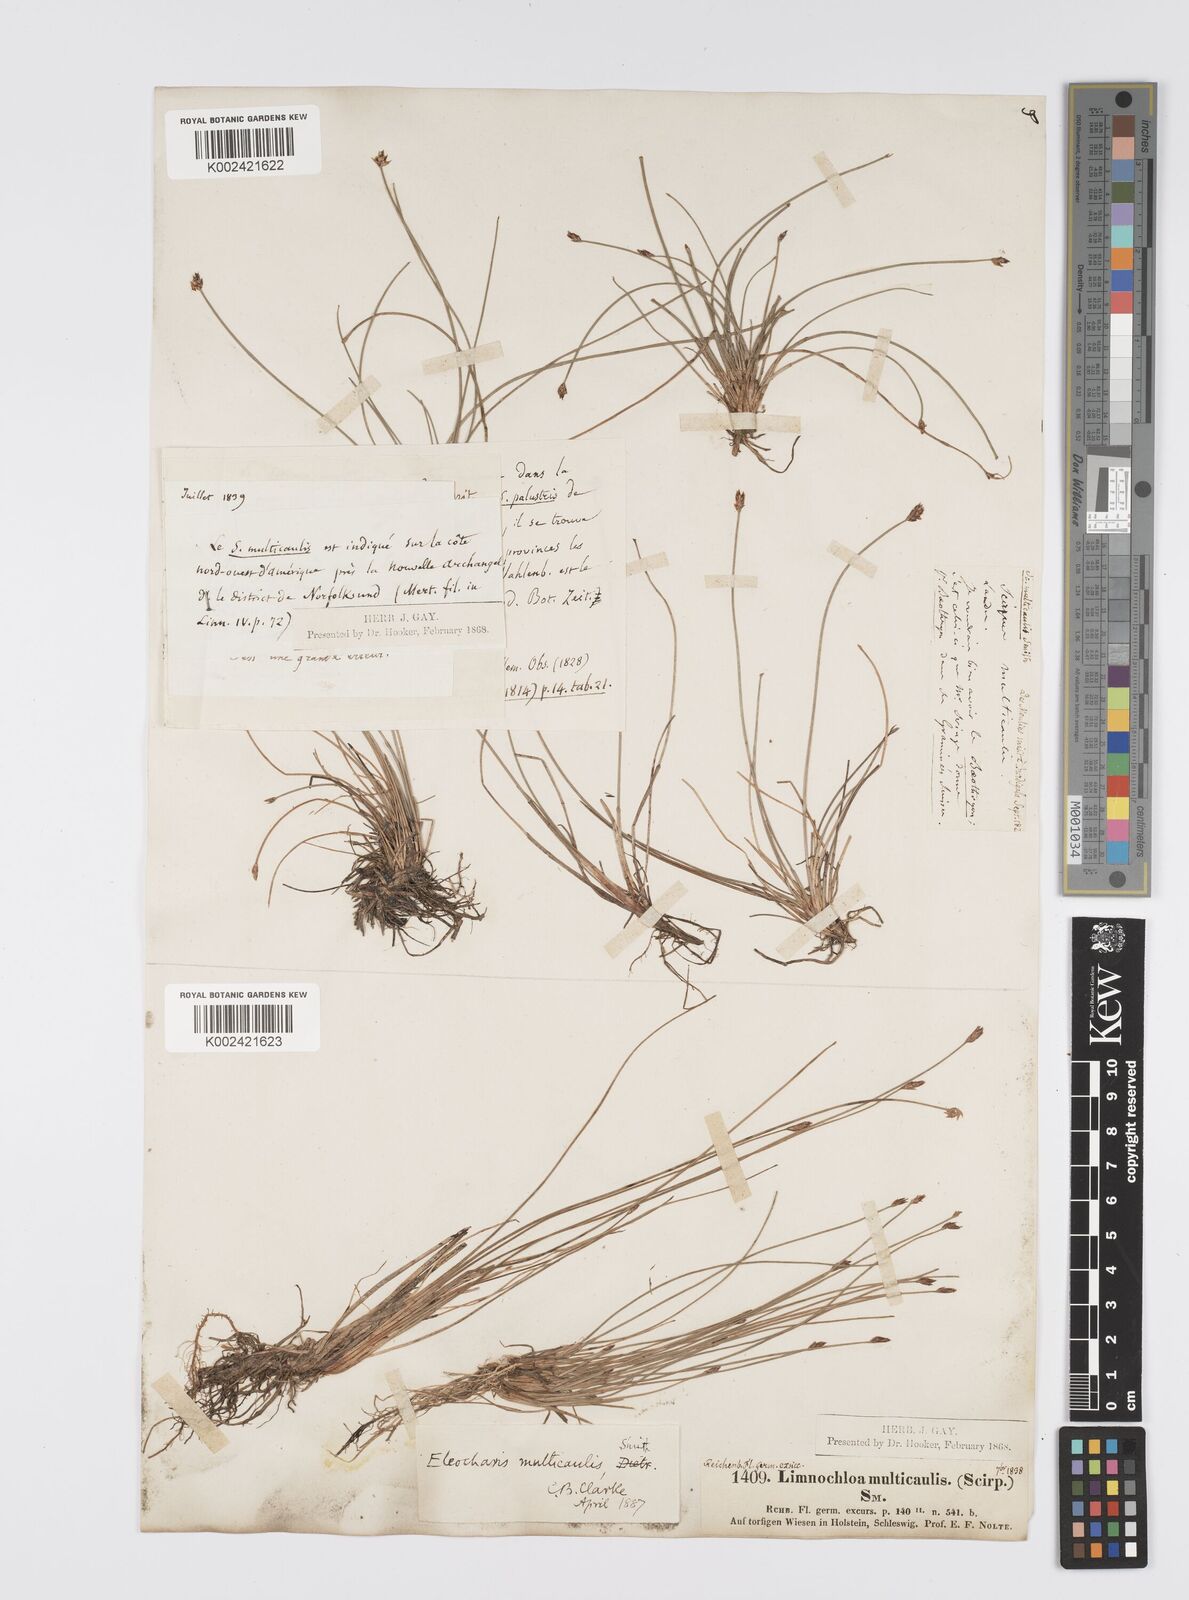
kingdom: Plantae
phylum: Tracheophyta
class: Liliopsida
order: Poales
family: Cyperaceae
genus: Eleocharis
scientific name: Eleocharis multicaulis
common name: Many-stalked spike-rush
